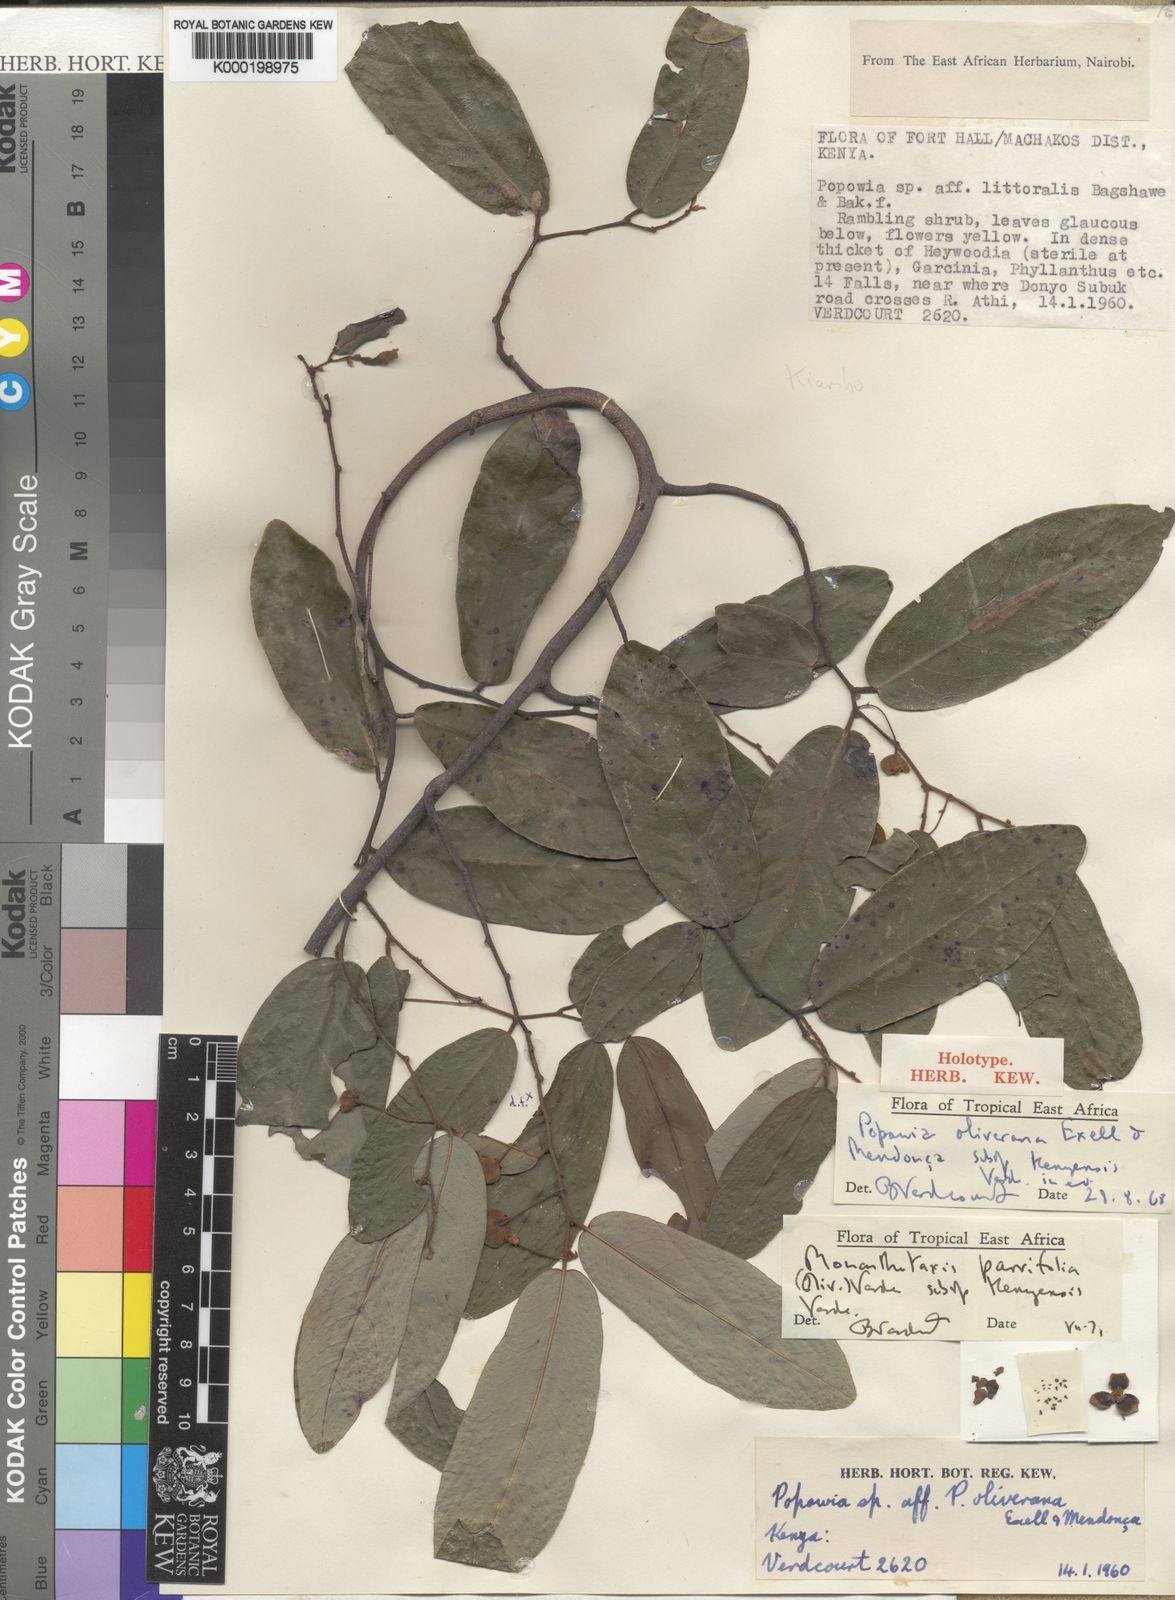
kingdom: Plantae
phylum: Tracheophyta
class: Magnoliopsida
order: Magnoliales
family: Annonaceae
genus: Monanthotaxis
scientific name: Monanthotaxis parvifolia
